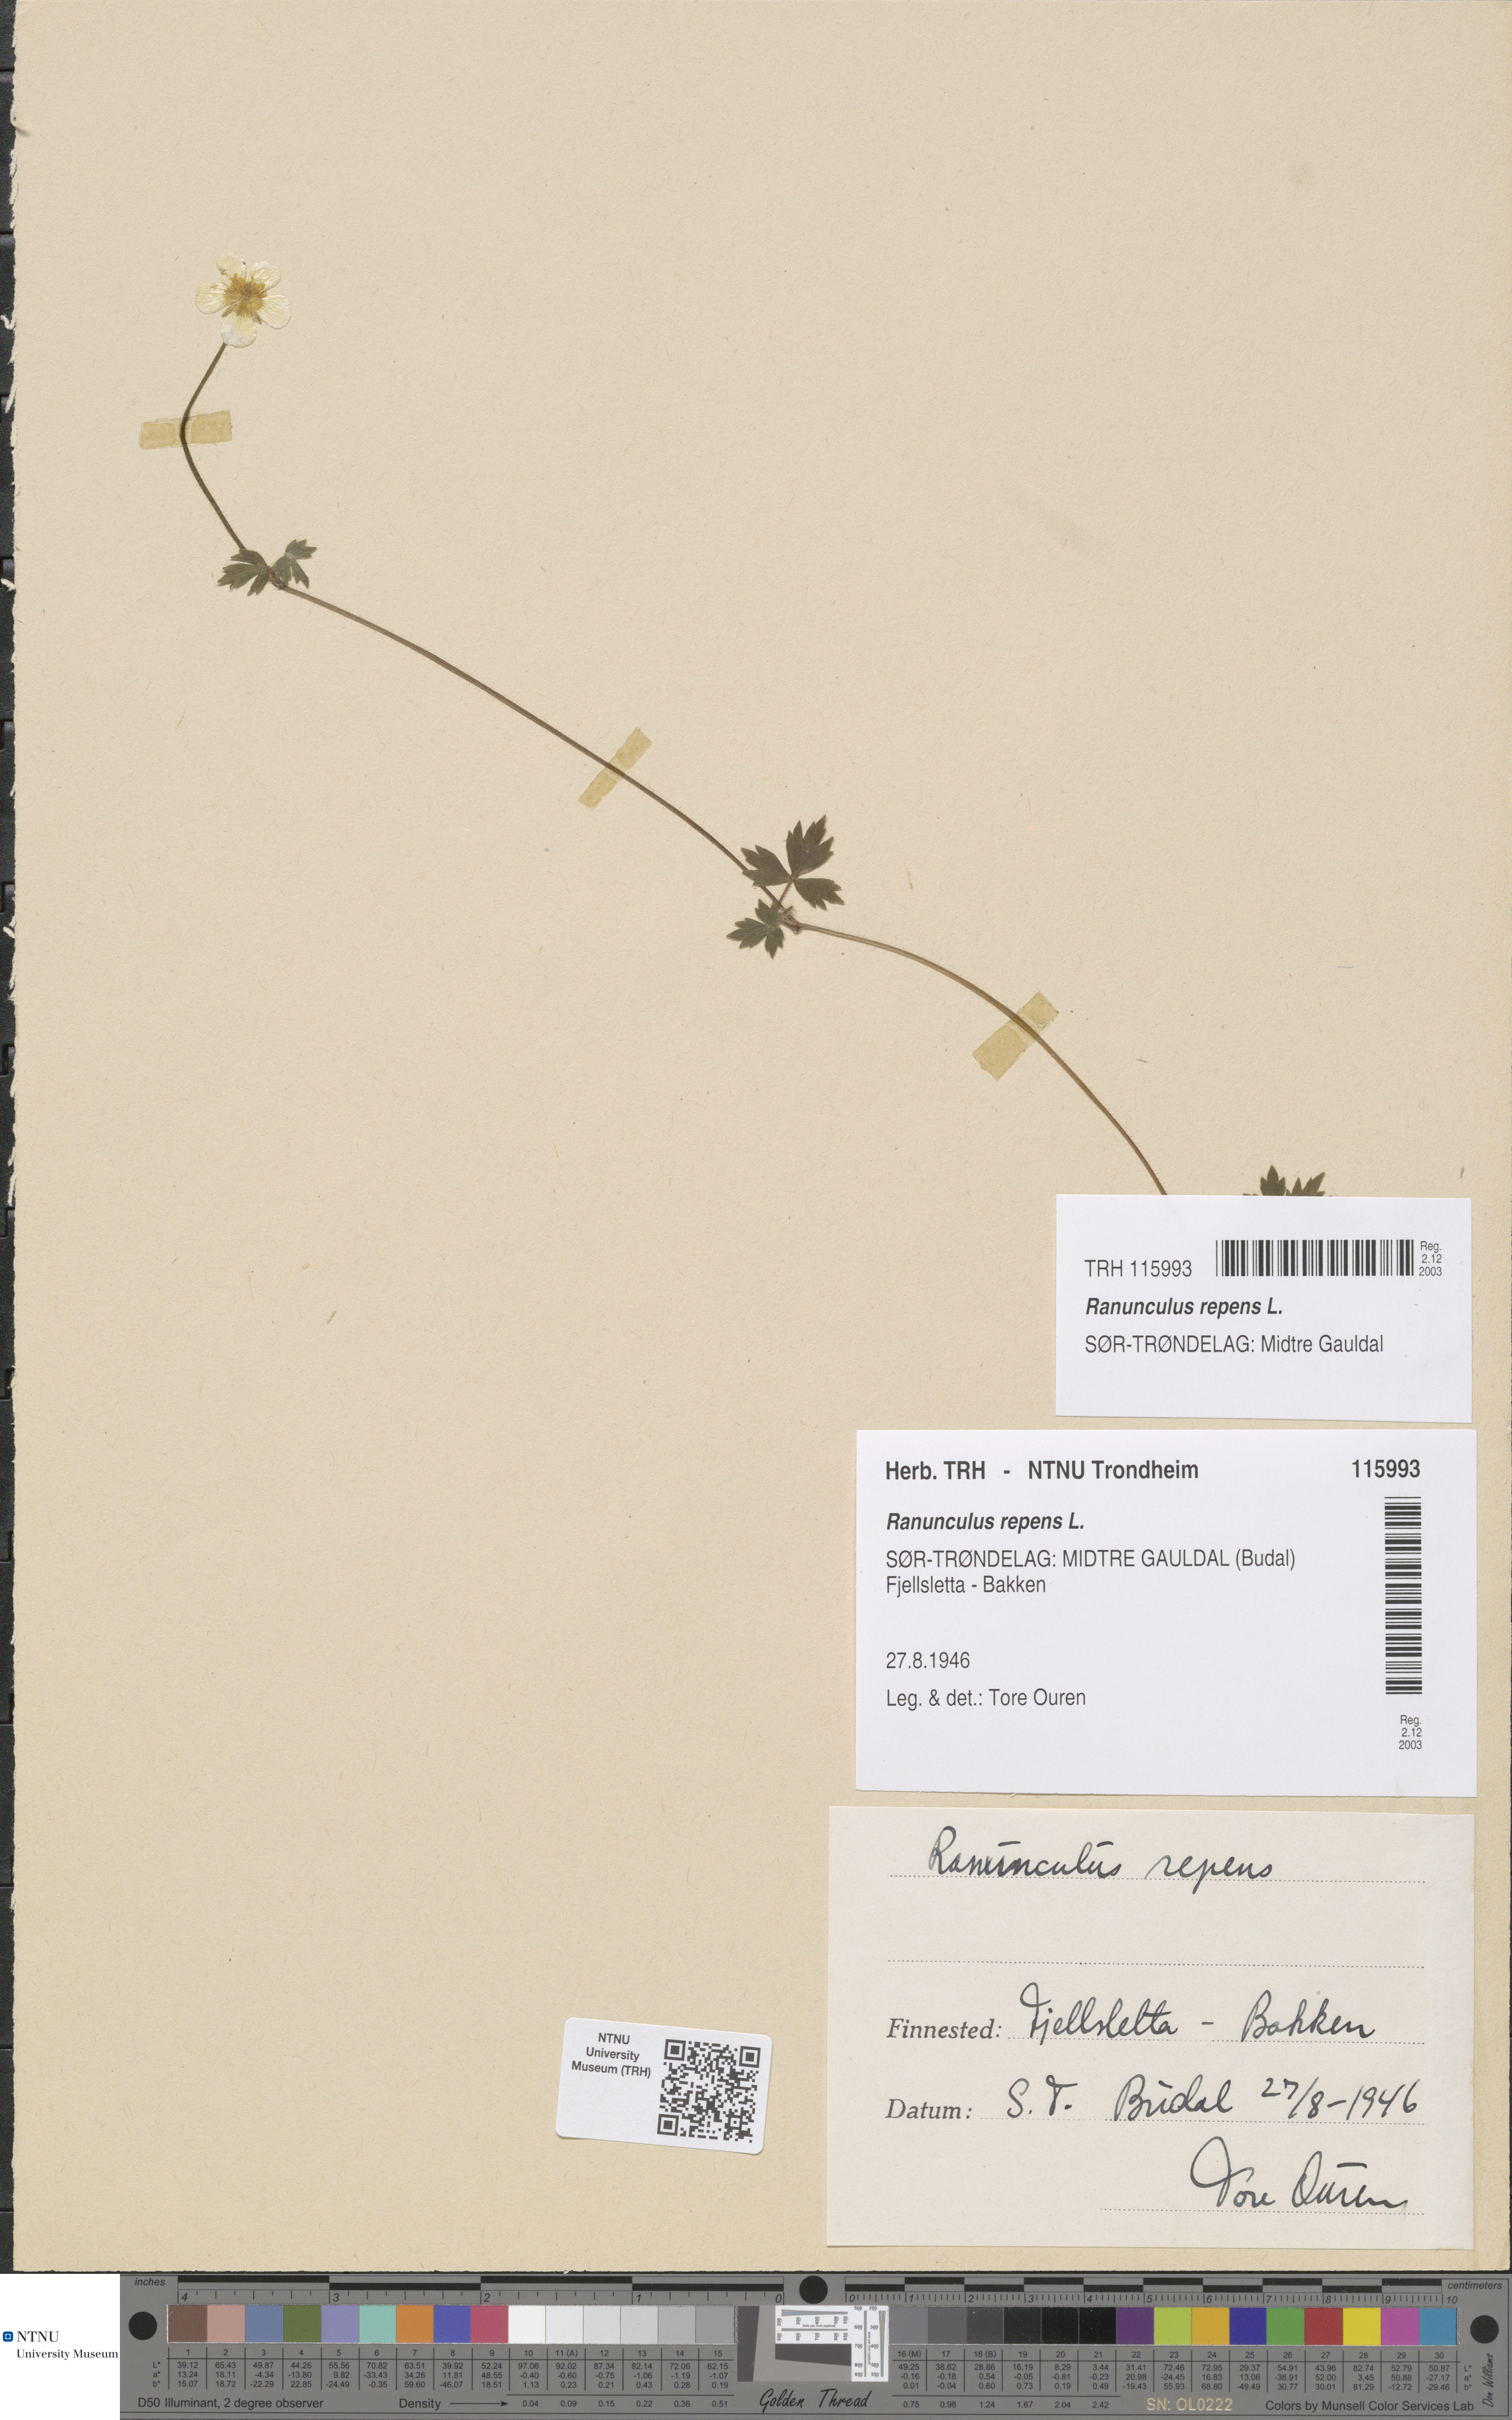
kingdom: Plantae
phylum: Tracheophyta
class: Magnoliopsida
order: Ranunculales
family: Ranunculaceae
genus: Ranunculus
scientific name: Ranunculus repens
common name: Creeping buttercup
